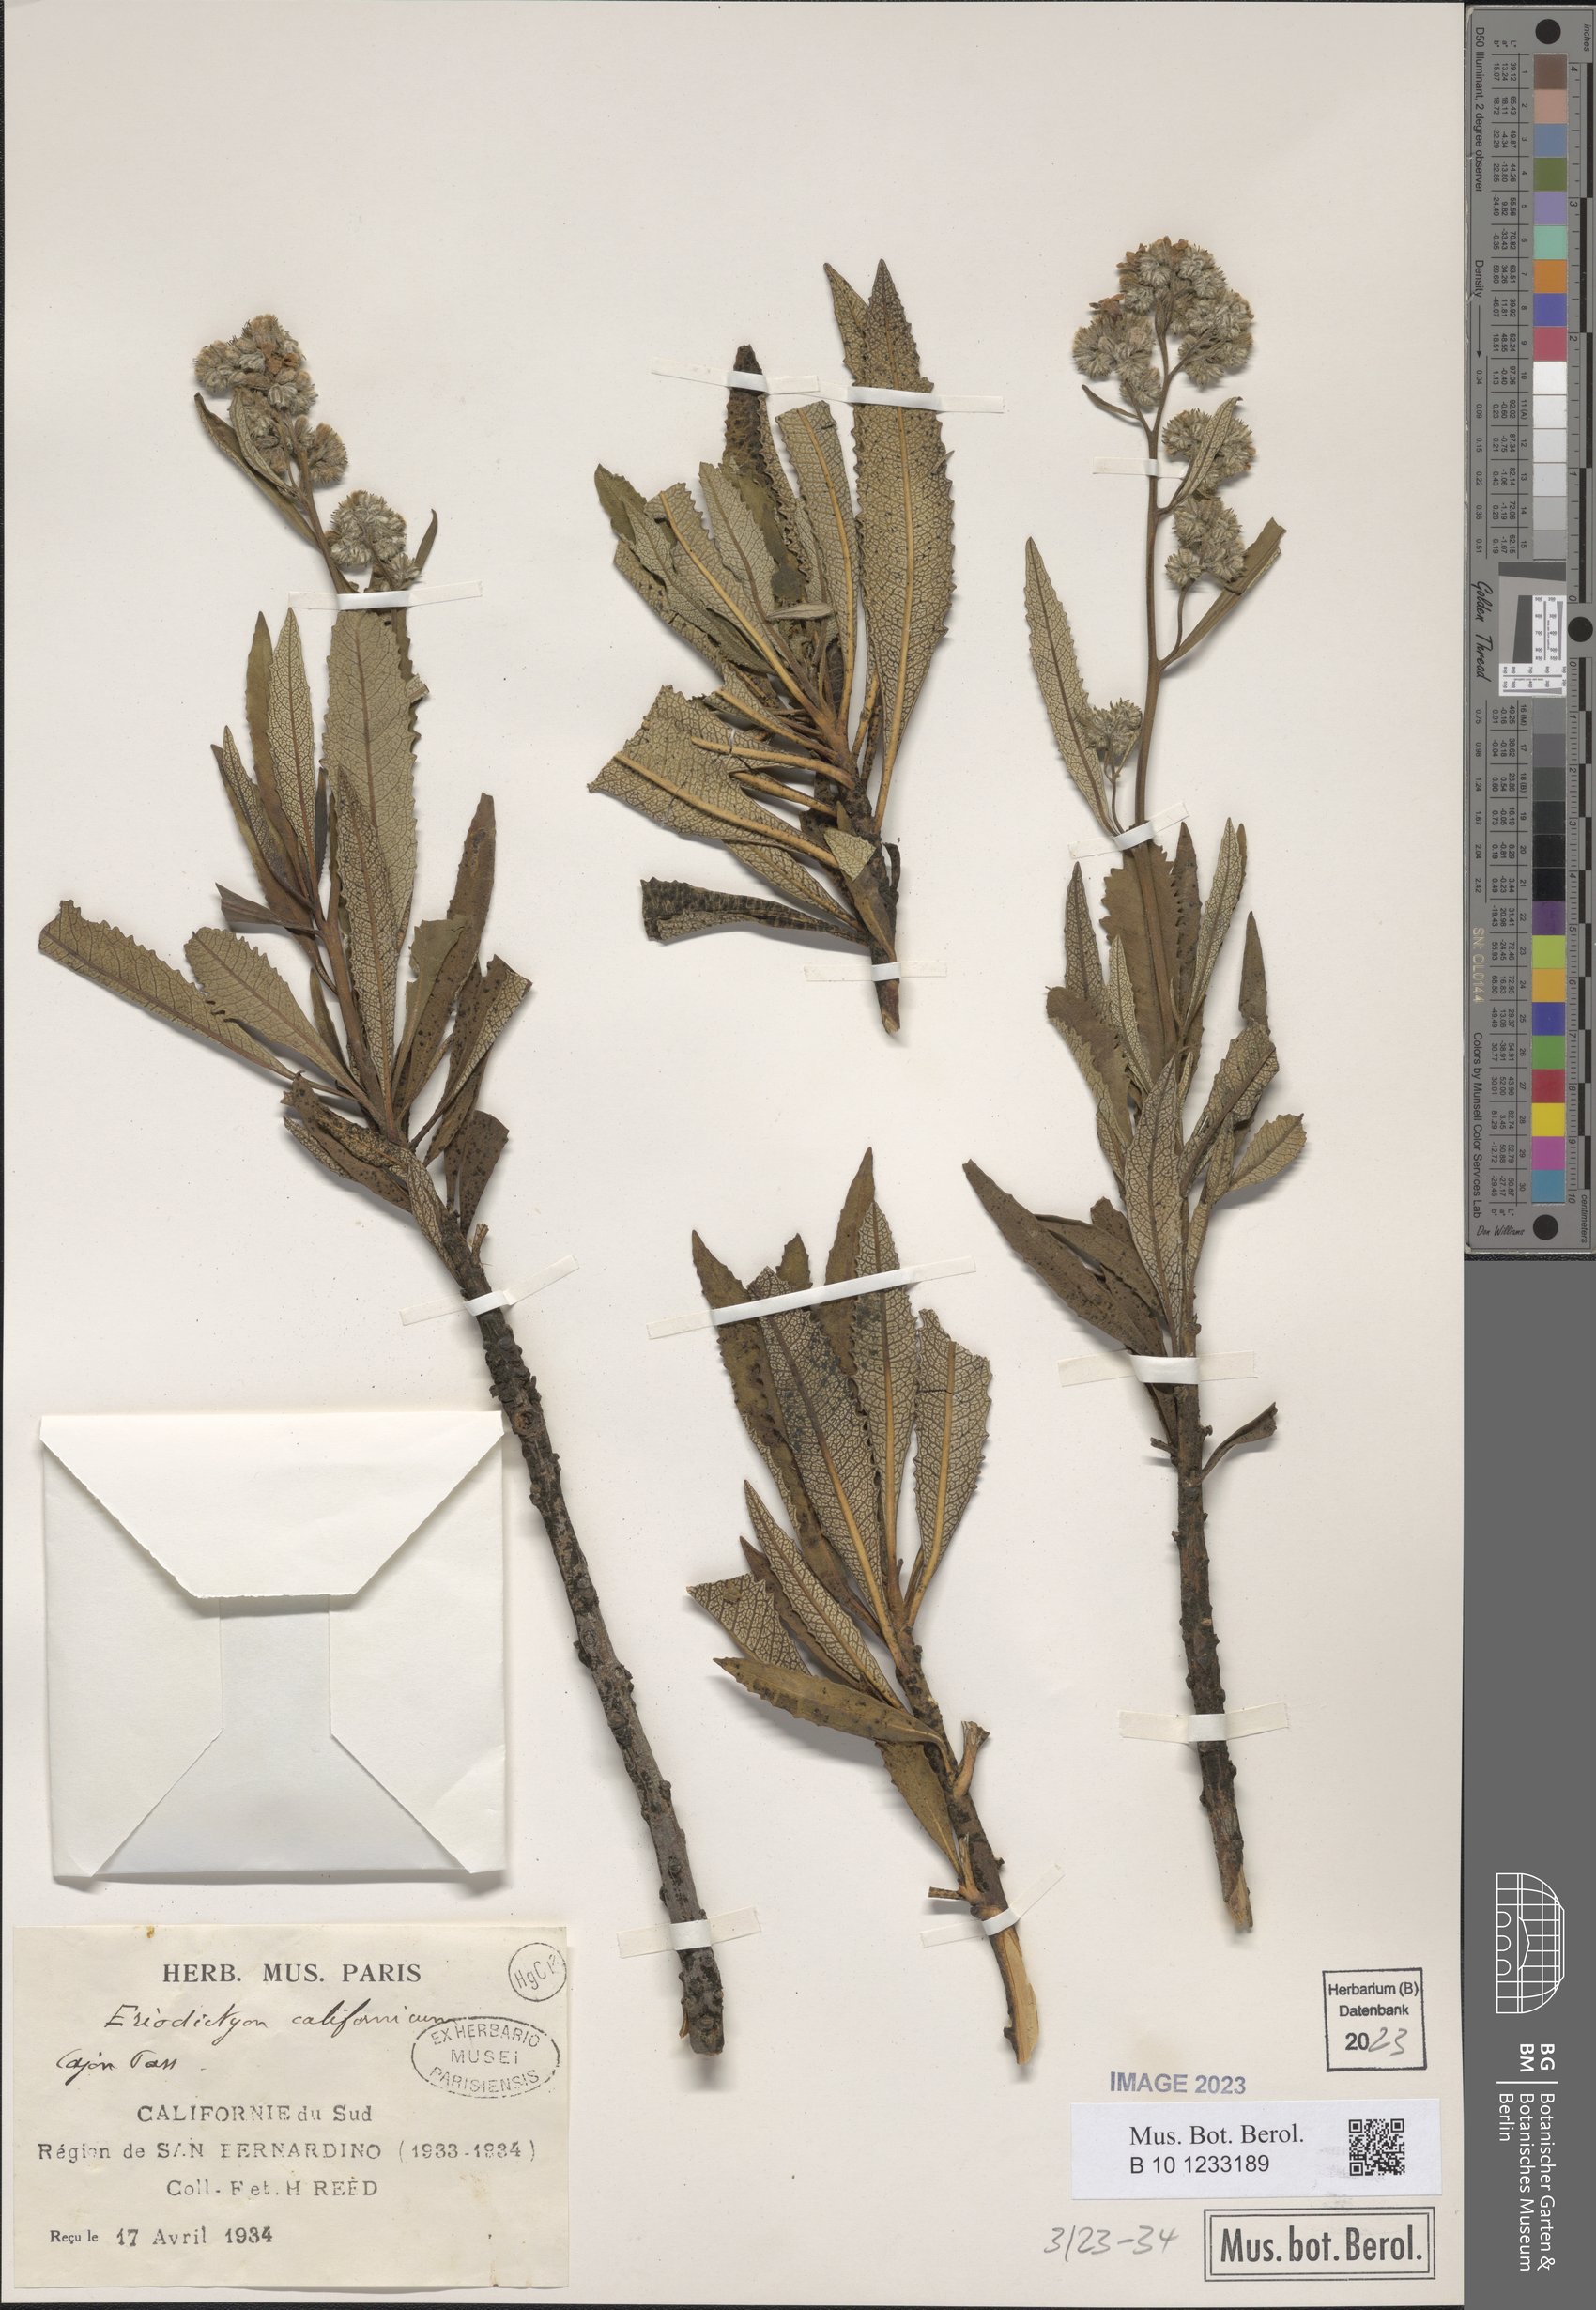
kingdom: Plantae
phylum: Tracheophyta
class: Magnoliopsida
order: Boraginales
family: Namaceae
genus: Eriodictyon
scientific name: Eriodictyon trichocalyx
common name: Hairy yerba-santa
